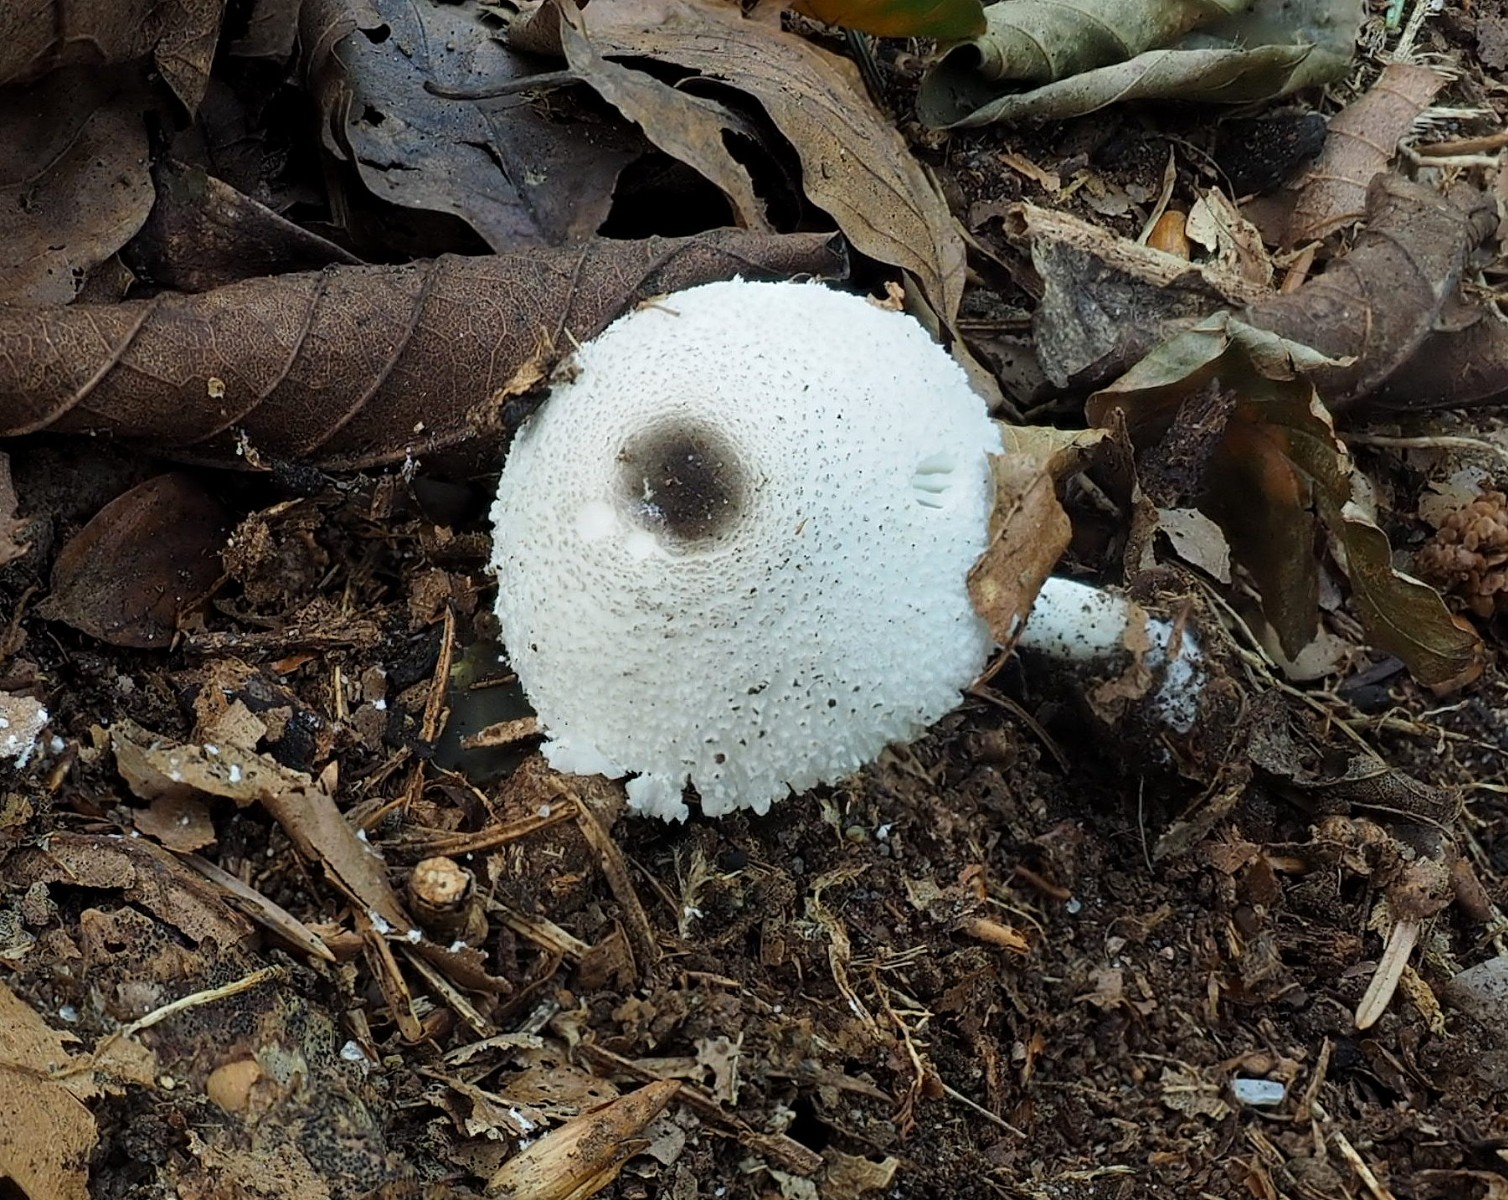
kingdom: Fungi
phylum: Basidiomycota
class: Agaricomycetes
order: Agaricales
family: Agaricaceae
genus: Leucocoprinus
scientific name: Leucocoprinus brebissonii
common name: gråsort silkehat
